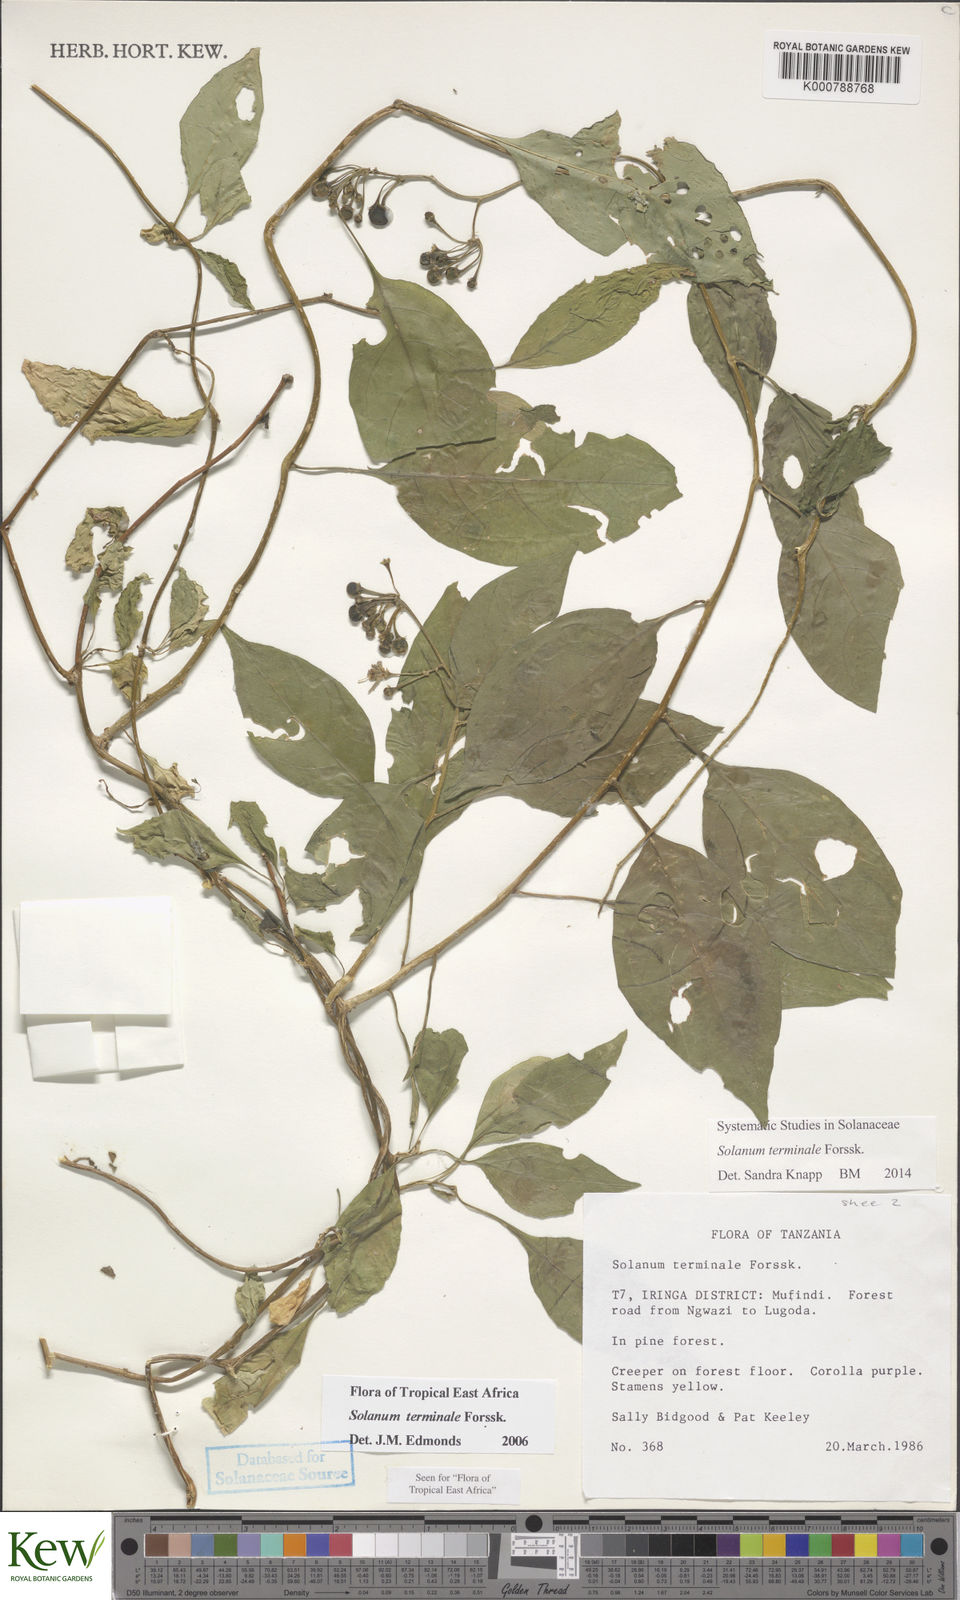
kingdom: Plantae
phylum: Tracheophyta
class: Magnoliopsida
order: Solanales
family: Solanaceae
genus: Solanum
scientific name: Solanum terminale
